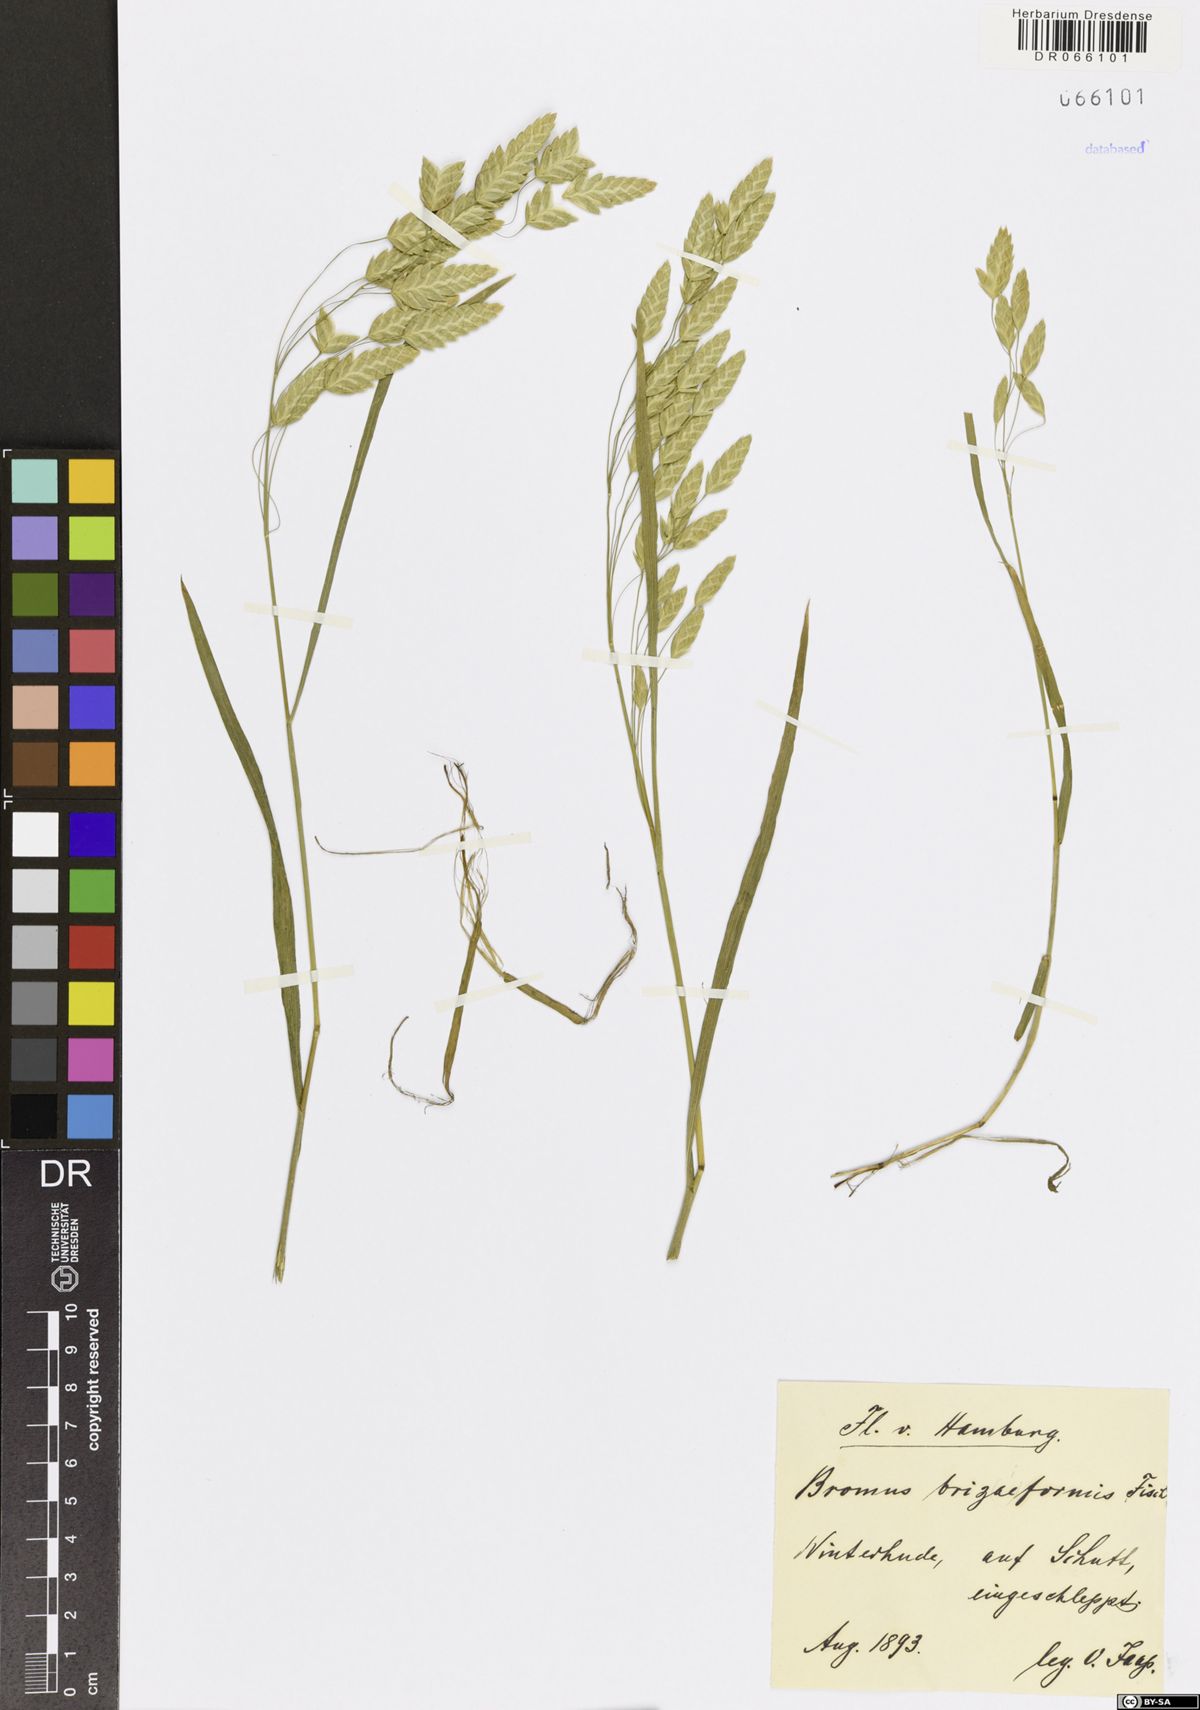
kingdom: Plantae
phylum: Tracheophyta
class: Liliopsida
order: Poales
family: Poaceae
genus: Bromus
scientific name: Bromus briziformis
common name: Rattlesnake brome
